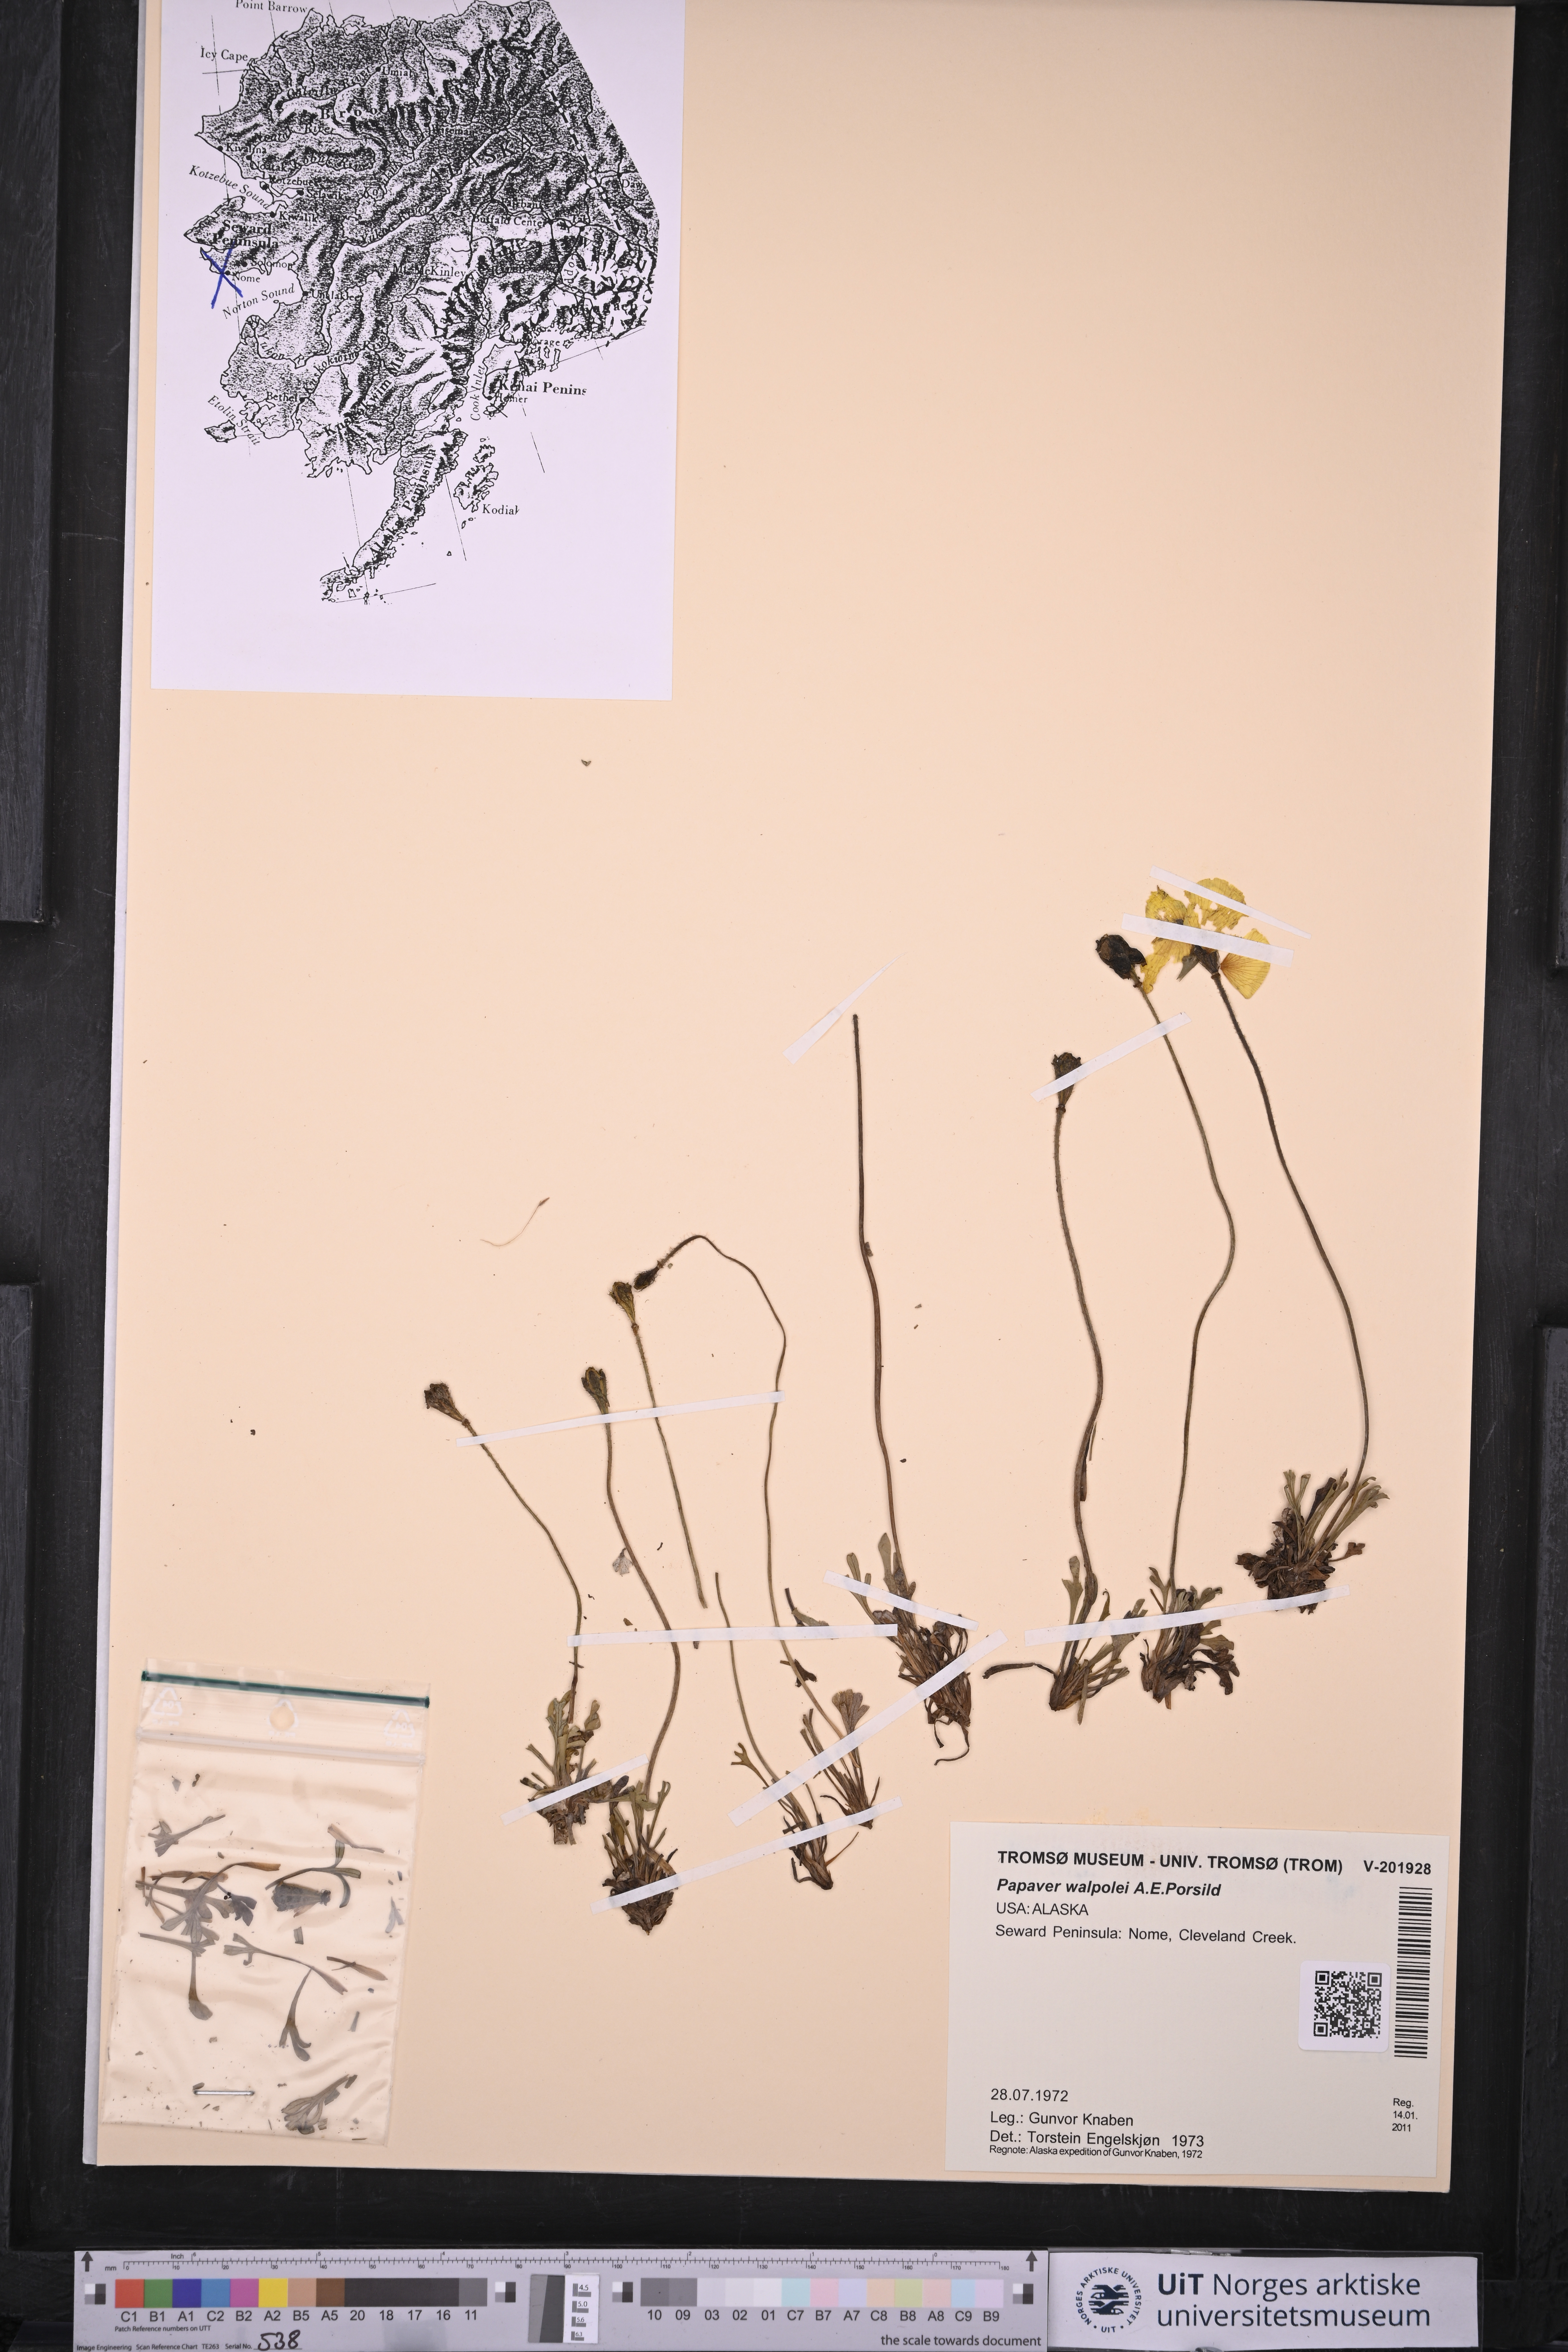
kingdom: Plantae
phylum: Tracheophyta
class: Magnoliopsida
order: Ranunculales
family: Papaveraceae
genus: Papaver
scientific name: Papaver walpolei
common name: Walpole's poppy
